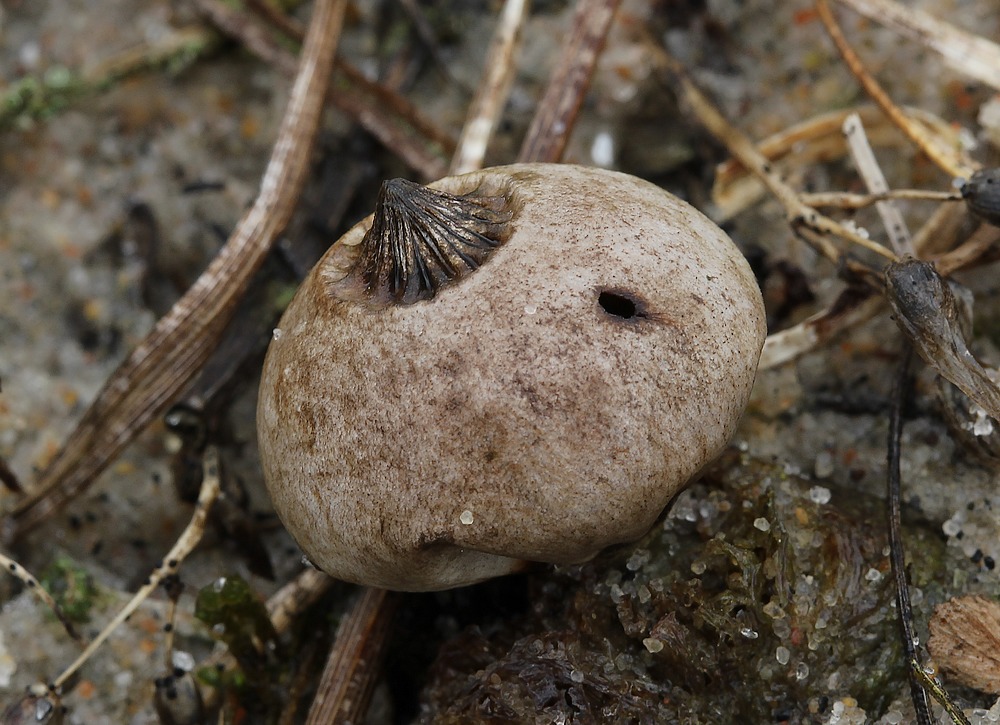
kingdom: Fungi
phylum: Basidiomycota
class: Agaricomycetes
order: Geastrales
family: Geastraceae
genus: Geastrum
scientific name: Geastrum striatum
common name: dværg-stjernebold
